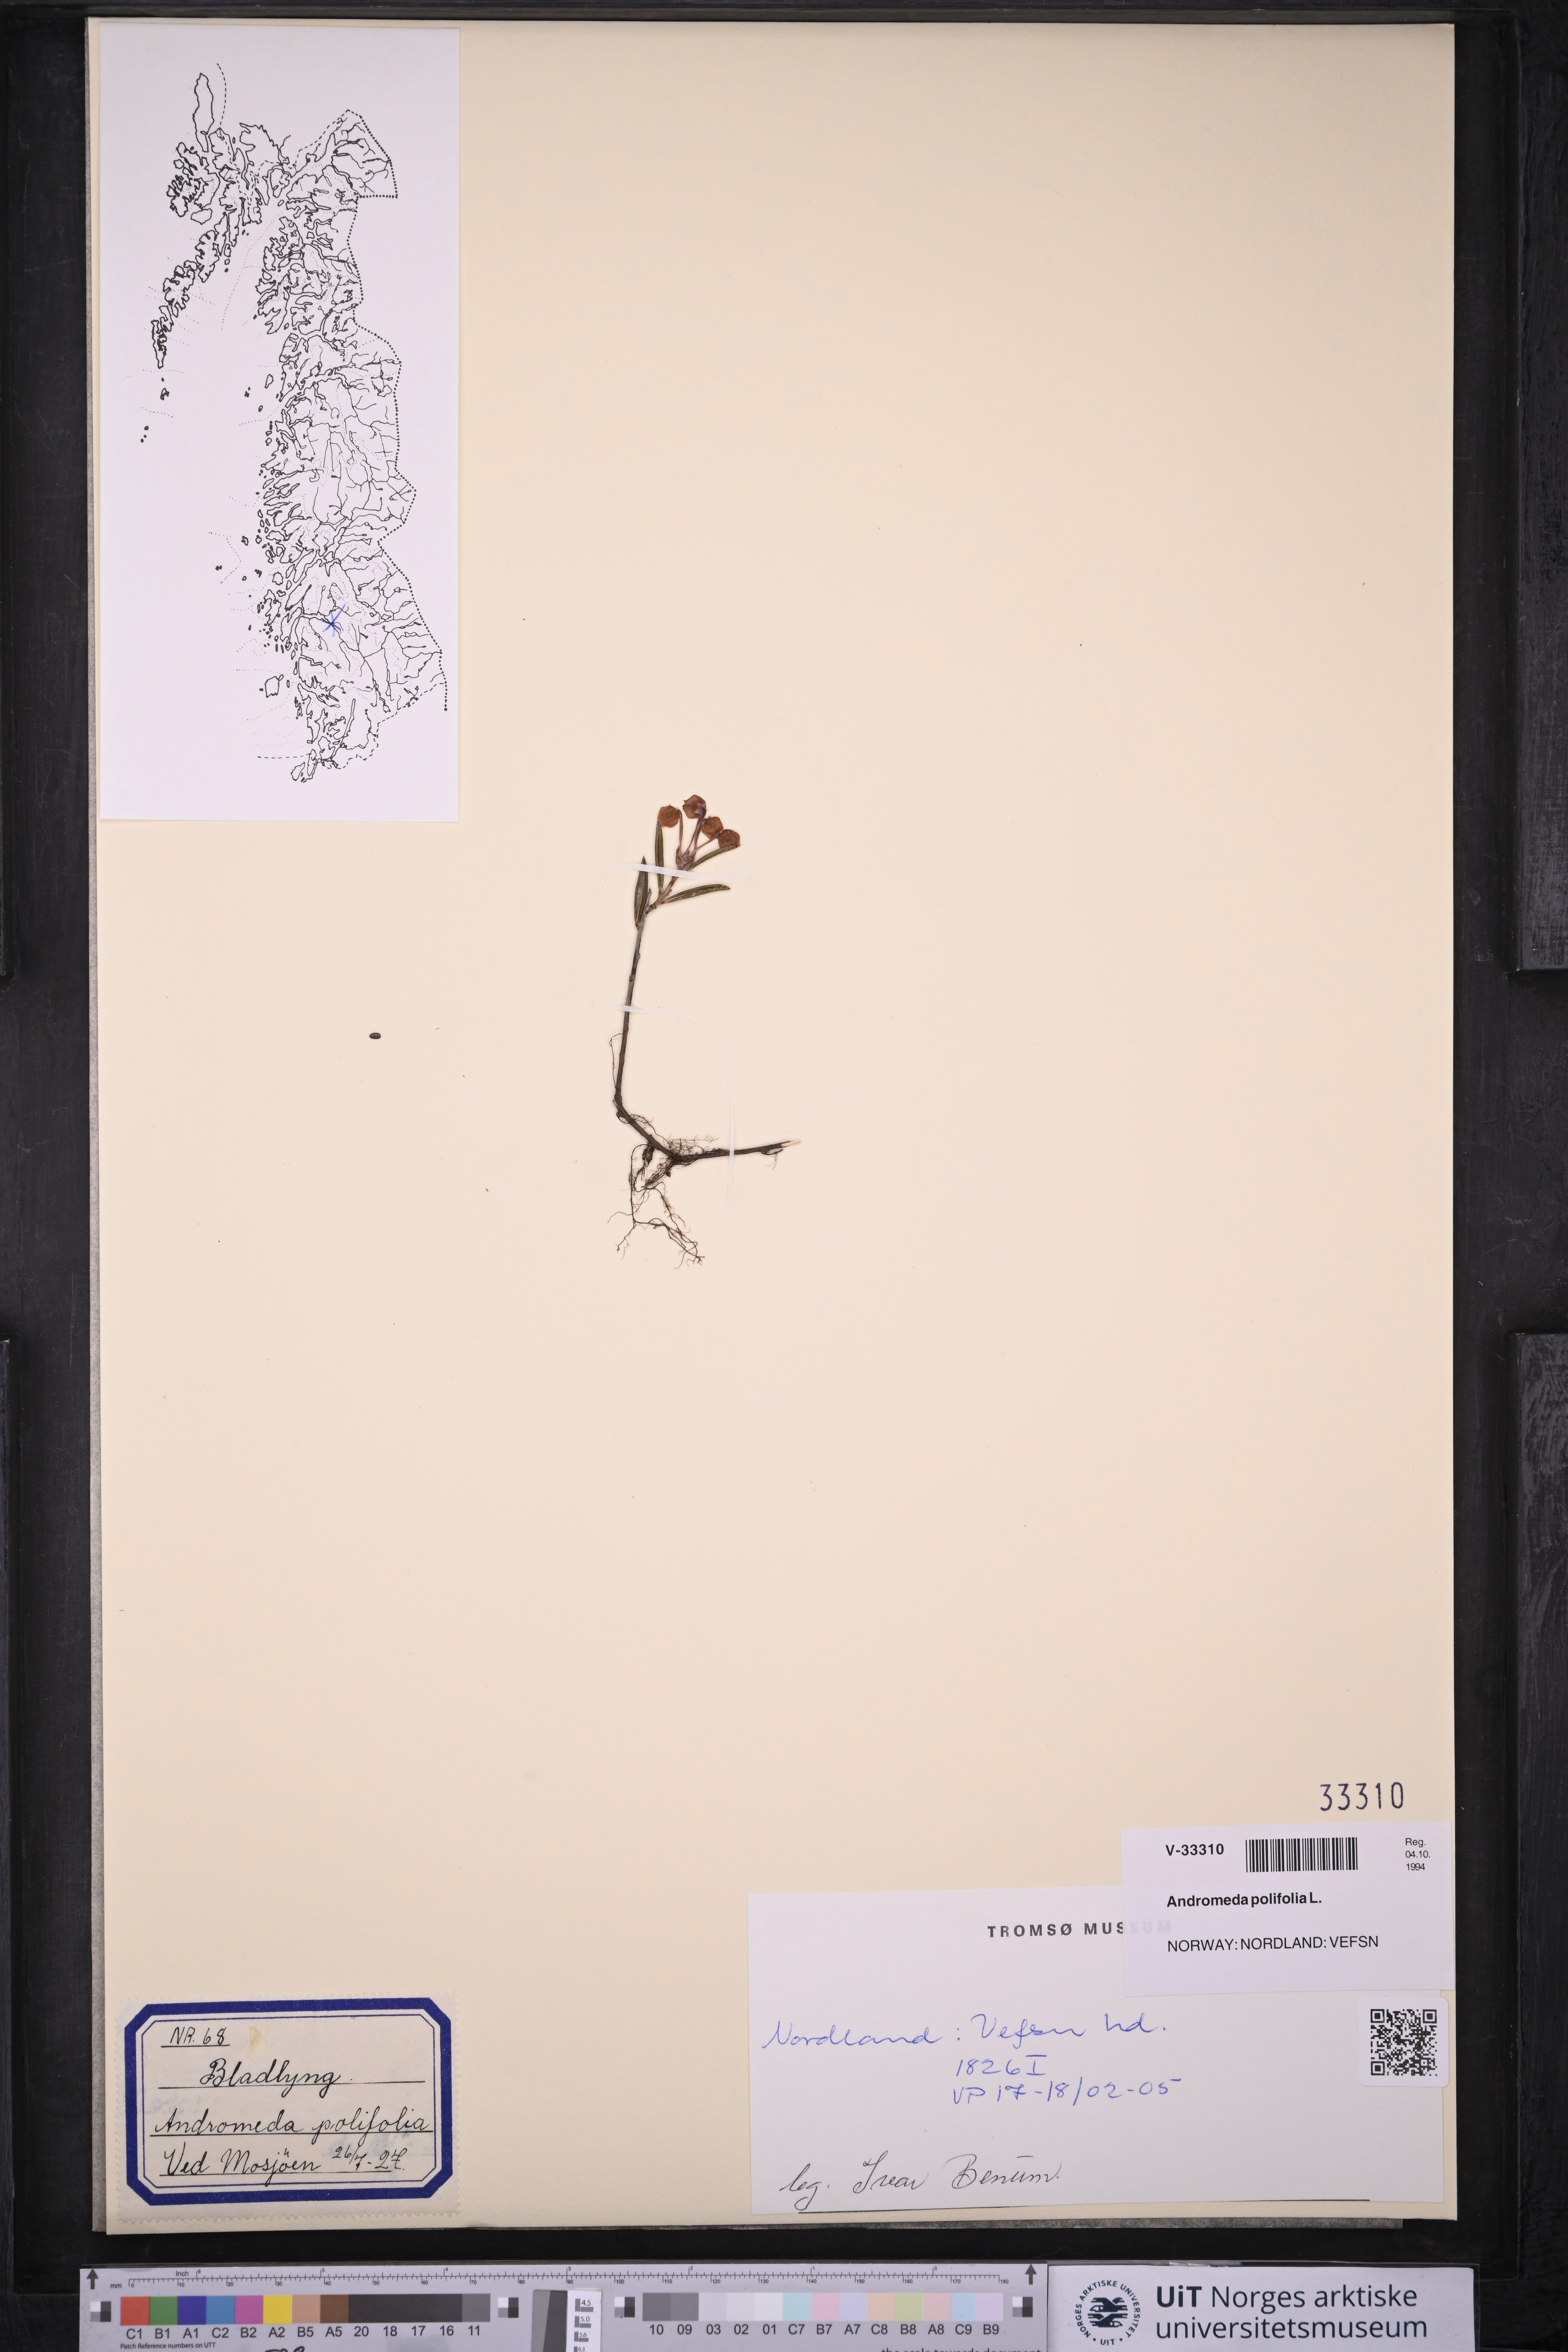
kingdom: Plantae
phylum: Tracheophyta
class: Magnoliopsida
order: Ericales
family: Ericaceae
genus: Andromeda
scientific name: Andromeda polifolia
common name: Bog-rosemary
